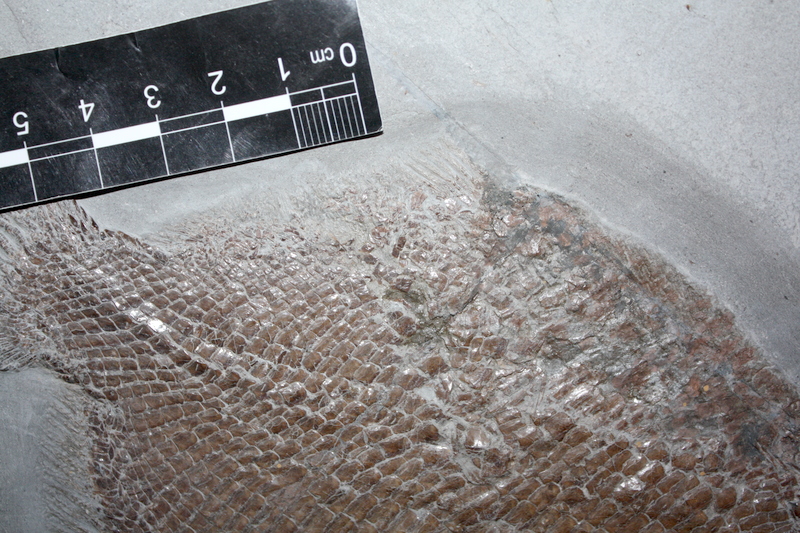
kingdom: Animalia
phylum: Chordata
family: Dapediidae
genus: Dapedium
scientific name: Dapedium
